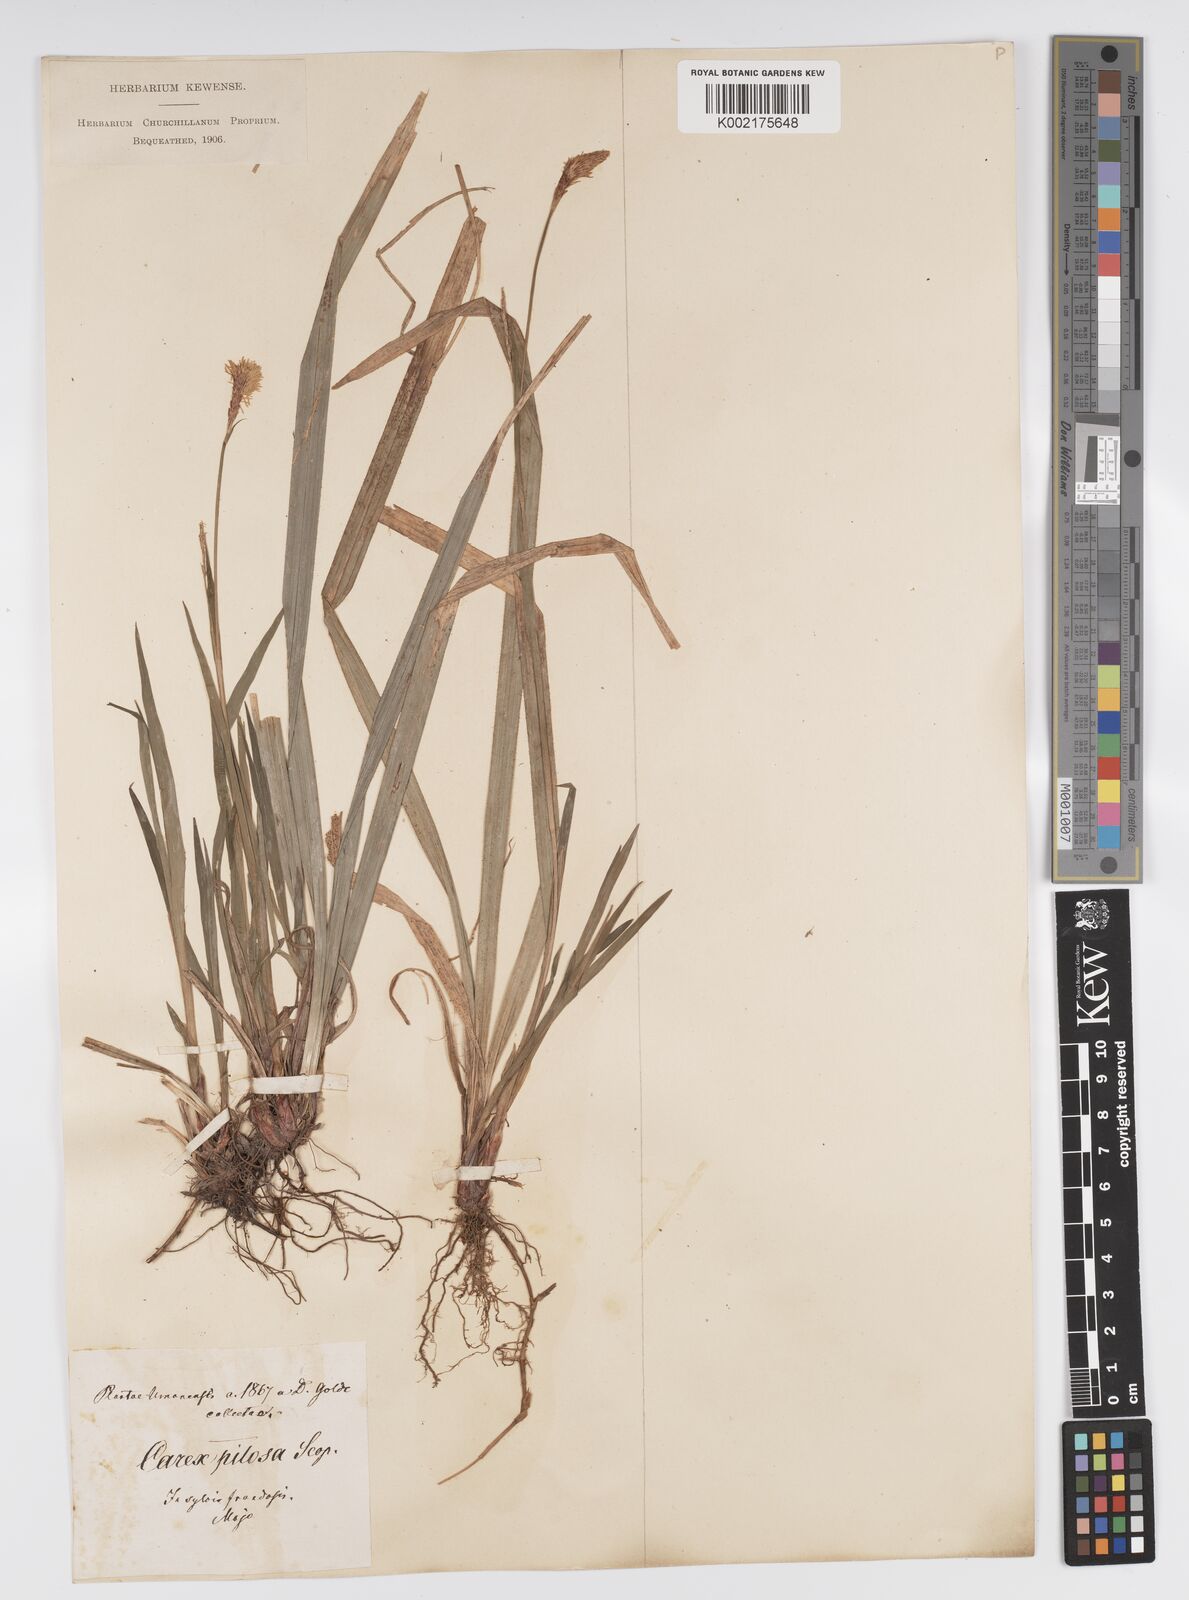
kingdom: Plantae
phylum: Tracheophyta
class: Liliopsida
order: Poales
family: Cyperaceae
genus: Carex
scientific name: Carex pilosa
